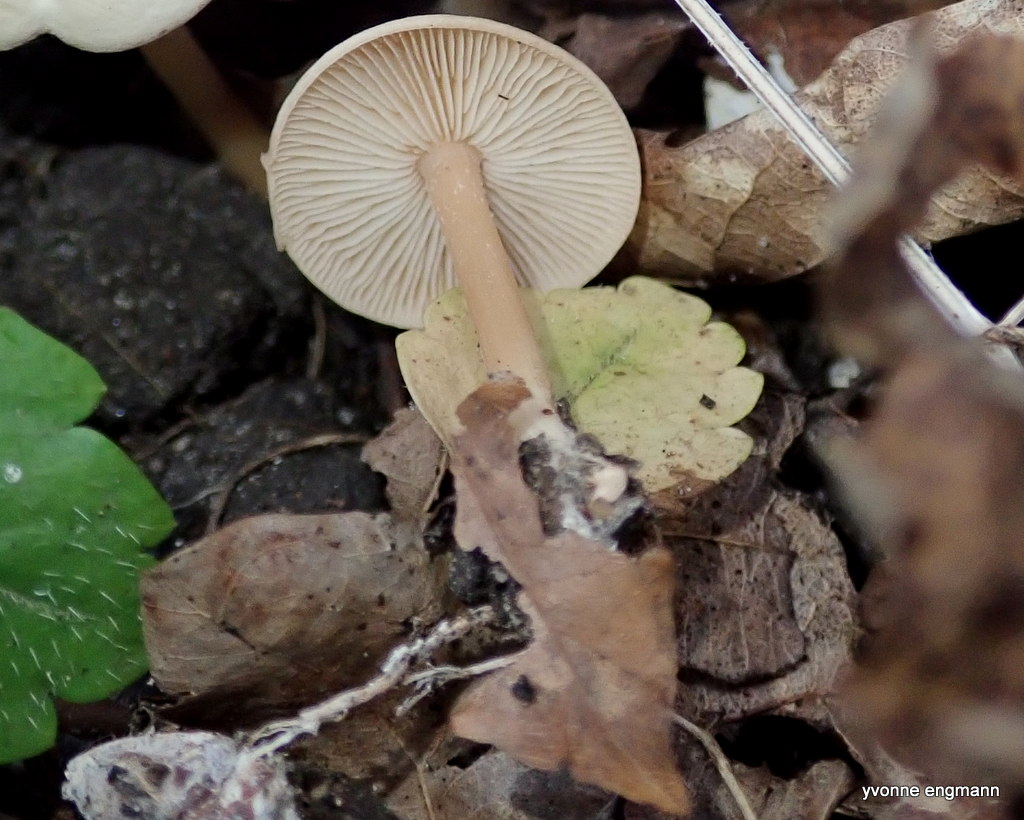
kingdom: Fungi
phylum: Basidiomycota
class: Agaricomycetes
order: Agaricales
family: Omphalotaceae
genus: Gymnopus
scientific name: Gymnopus
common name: fladhat
